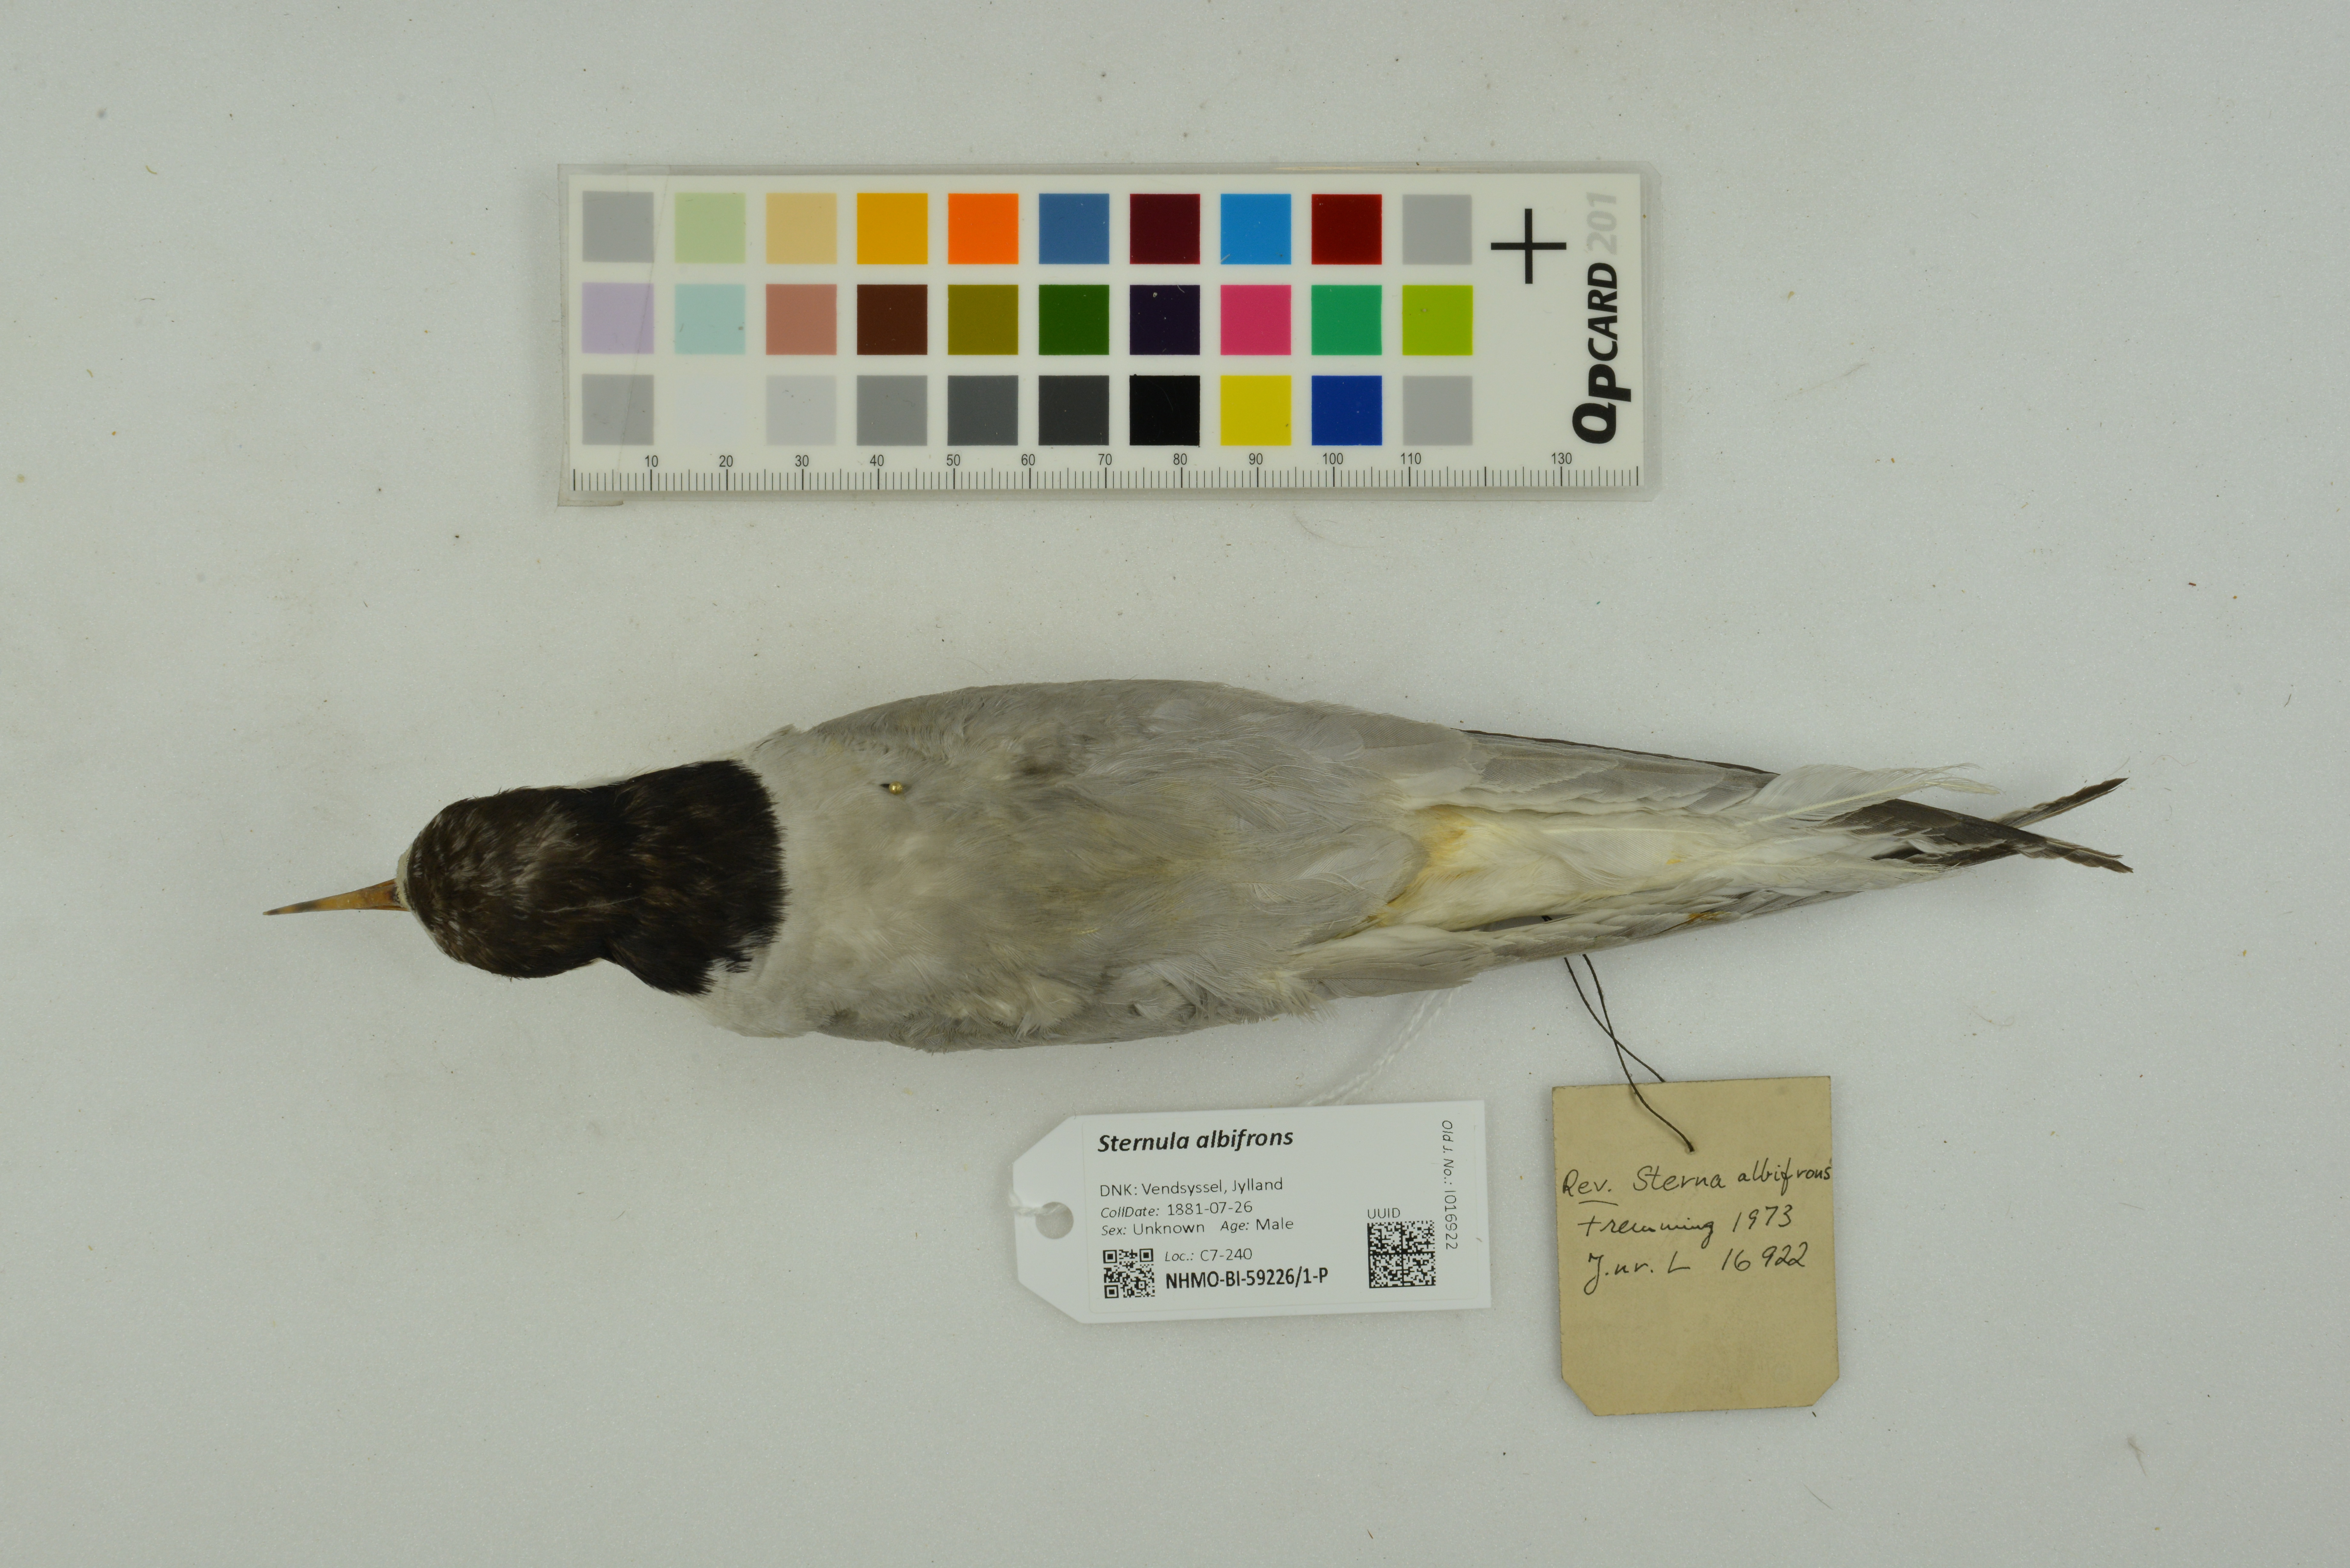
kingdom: Animalia
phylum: Chordata
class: Aves
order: Charadriiformes
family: Laridae
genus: Sternula
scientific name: Sternula albifrons
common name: Little tern
